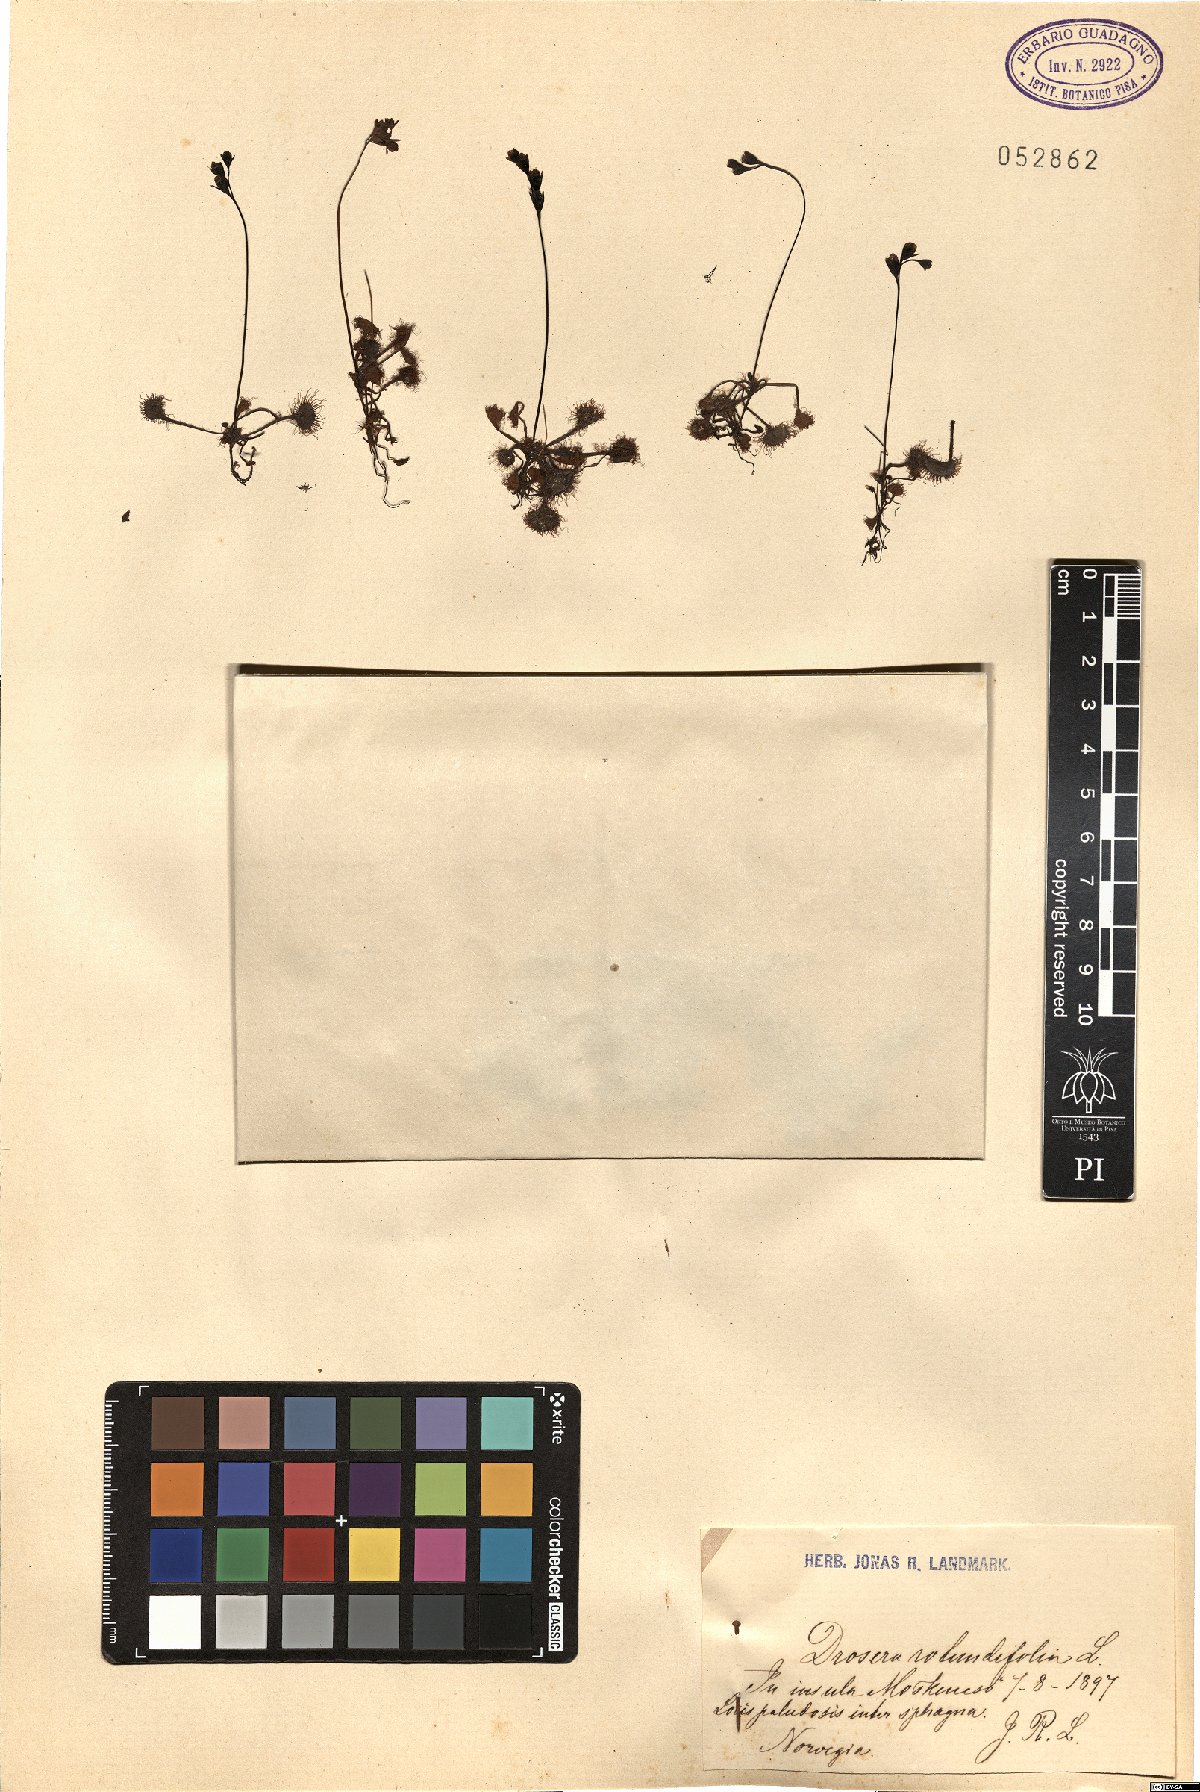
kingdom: Plantae
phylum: Tracheophyta
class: Magnoliopsida
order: Caryophyllales
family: Droseraceae
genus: Drosera
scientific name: Drosera rotundifolia
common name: Round-leaved sundew
